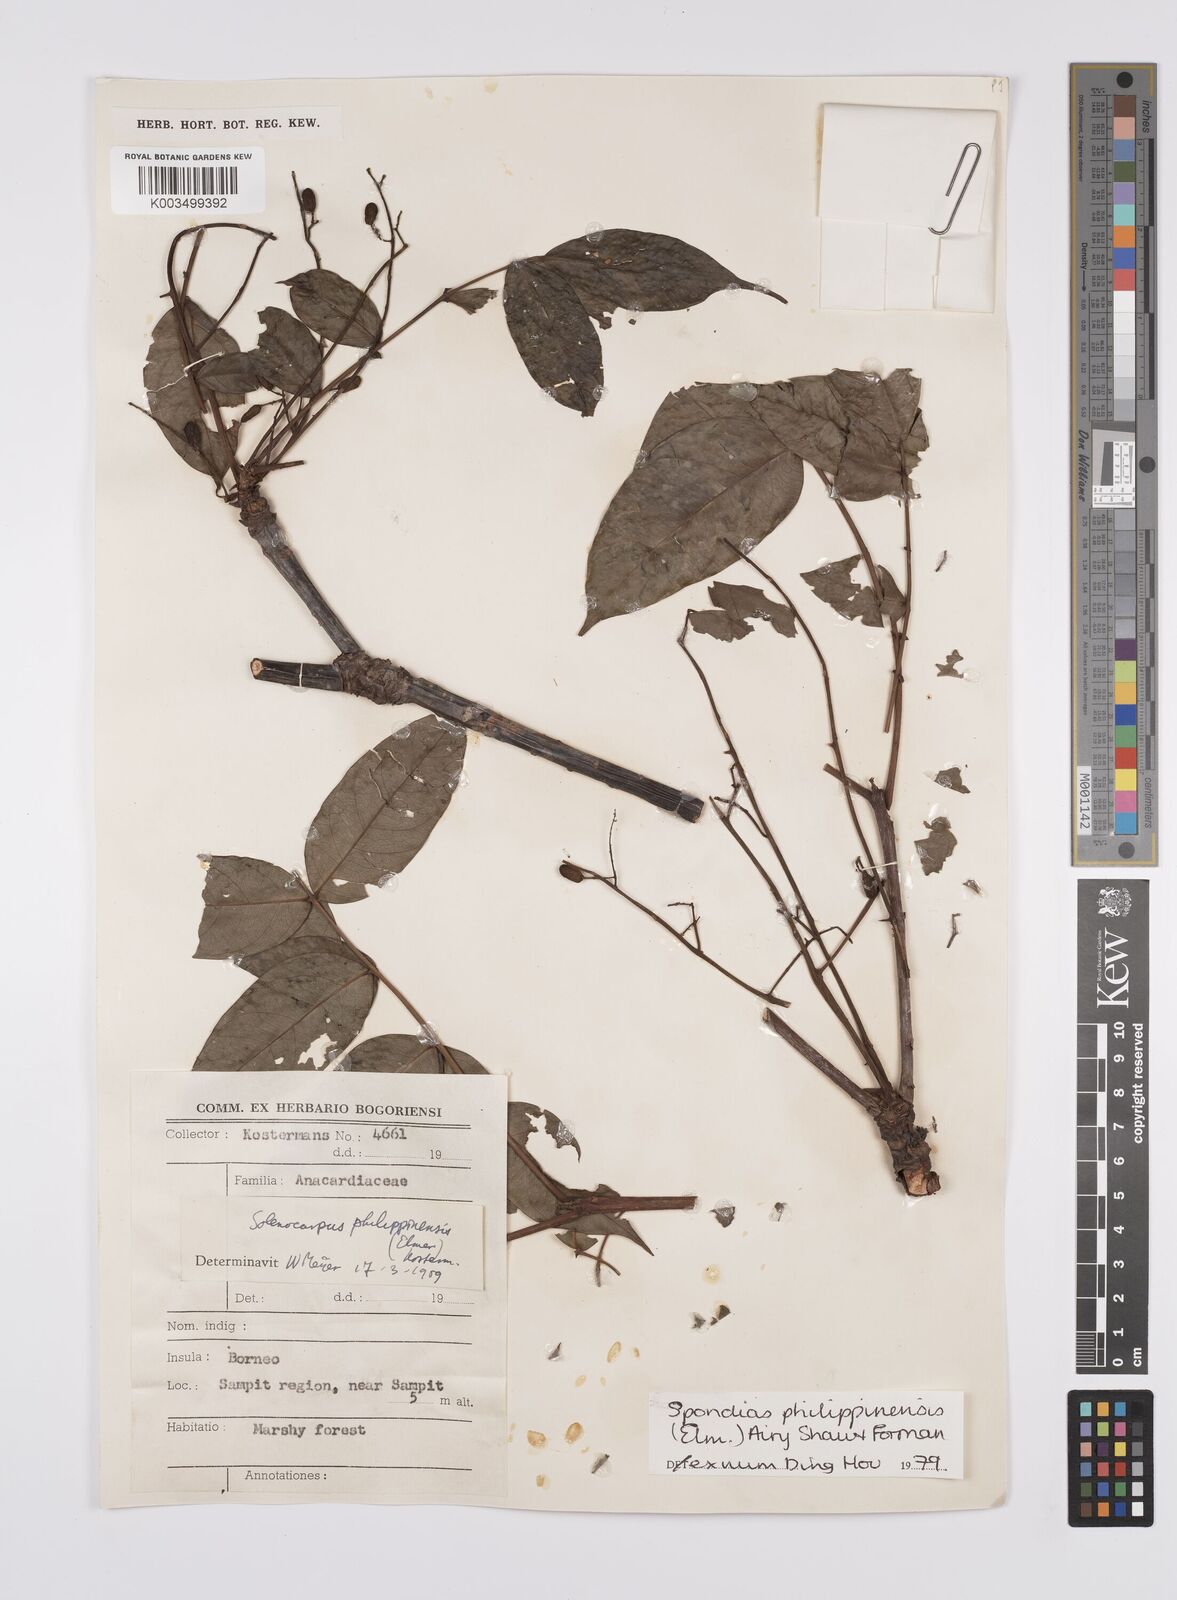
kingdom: Plantae
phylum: Tracheophyta
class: Magnoliopsida
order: Sapindales
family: Anacardiaceae
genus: Spondias
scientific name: Spondias philippinensis
